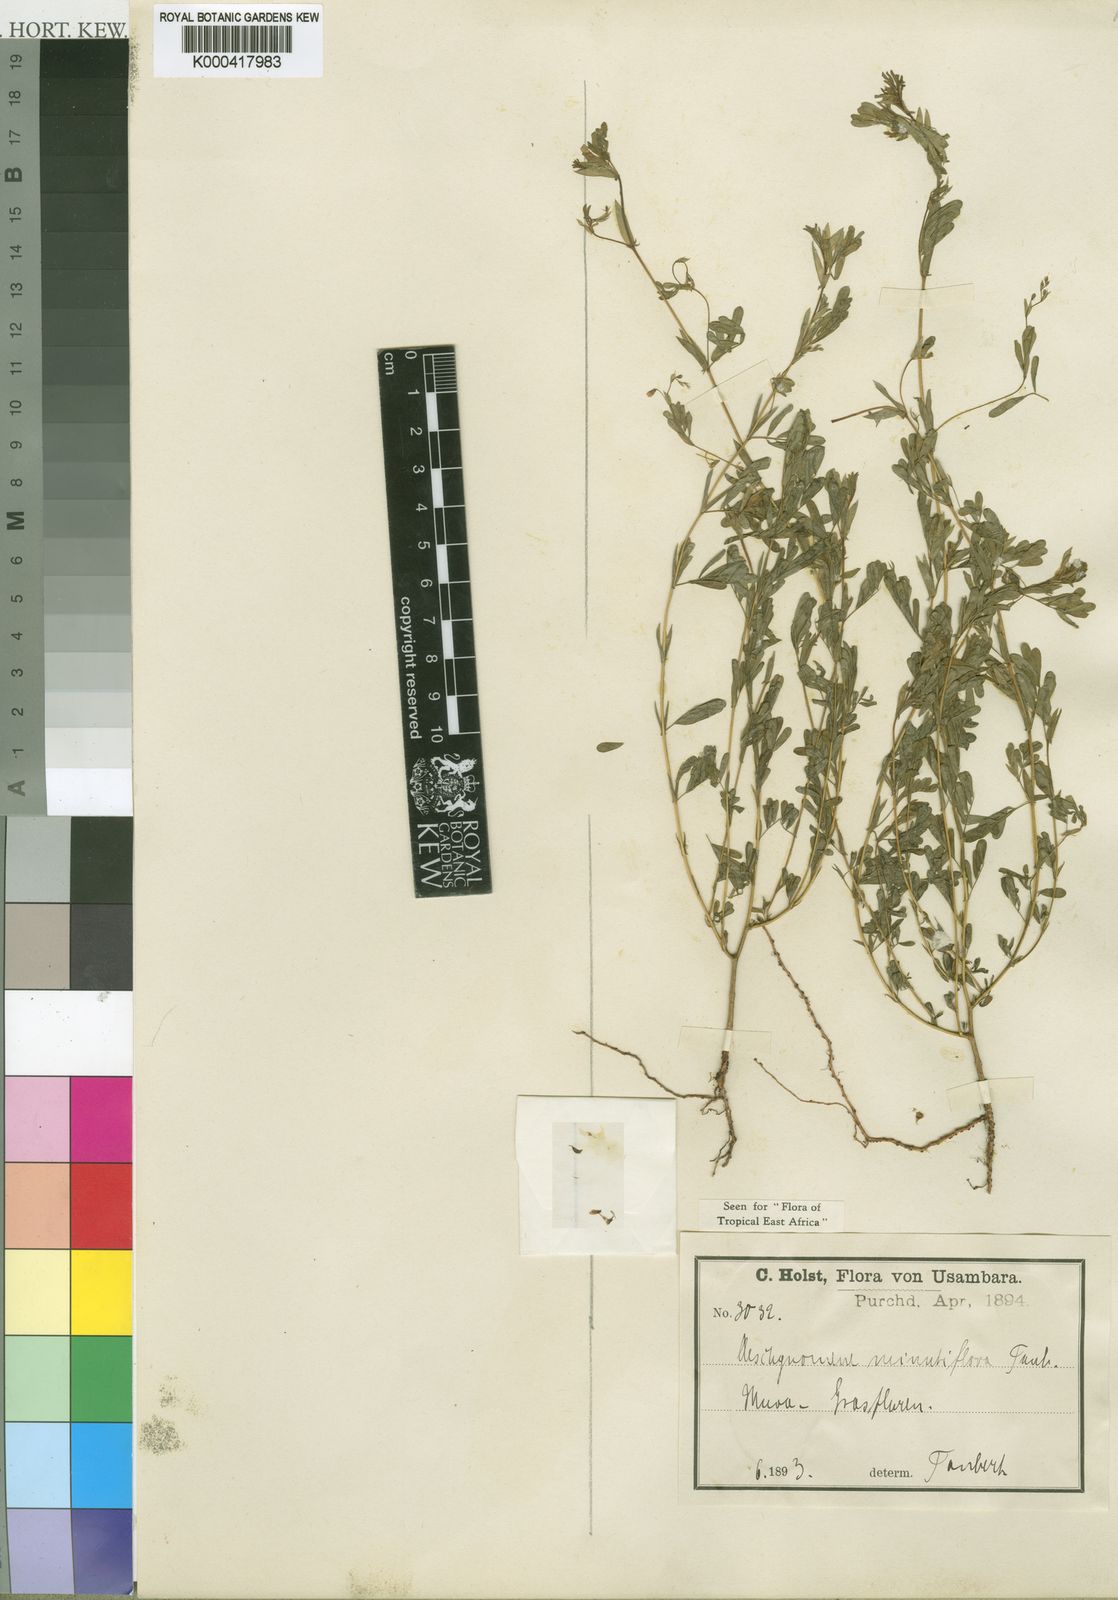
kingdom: Plantae
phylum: Tracheophyta
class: Magnoliopsida
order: Fabales
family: Fabaceae
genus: Aeschynomene
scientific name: Aeschynomene minutiflora
